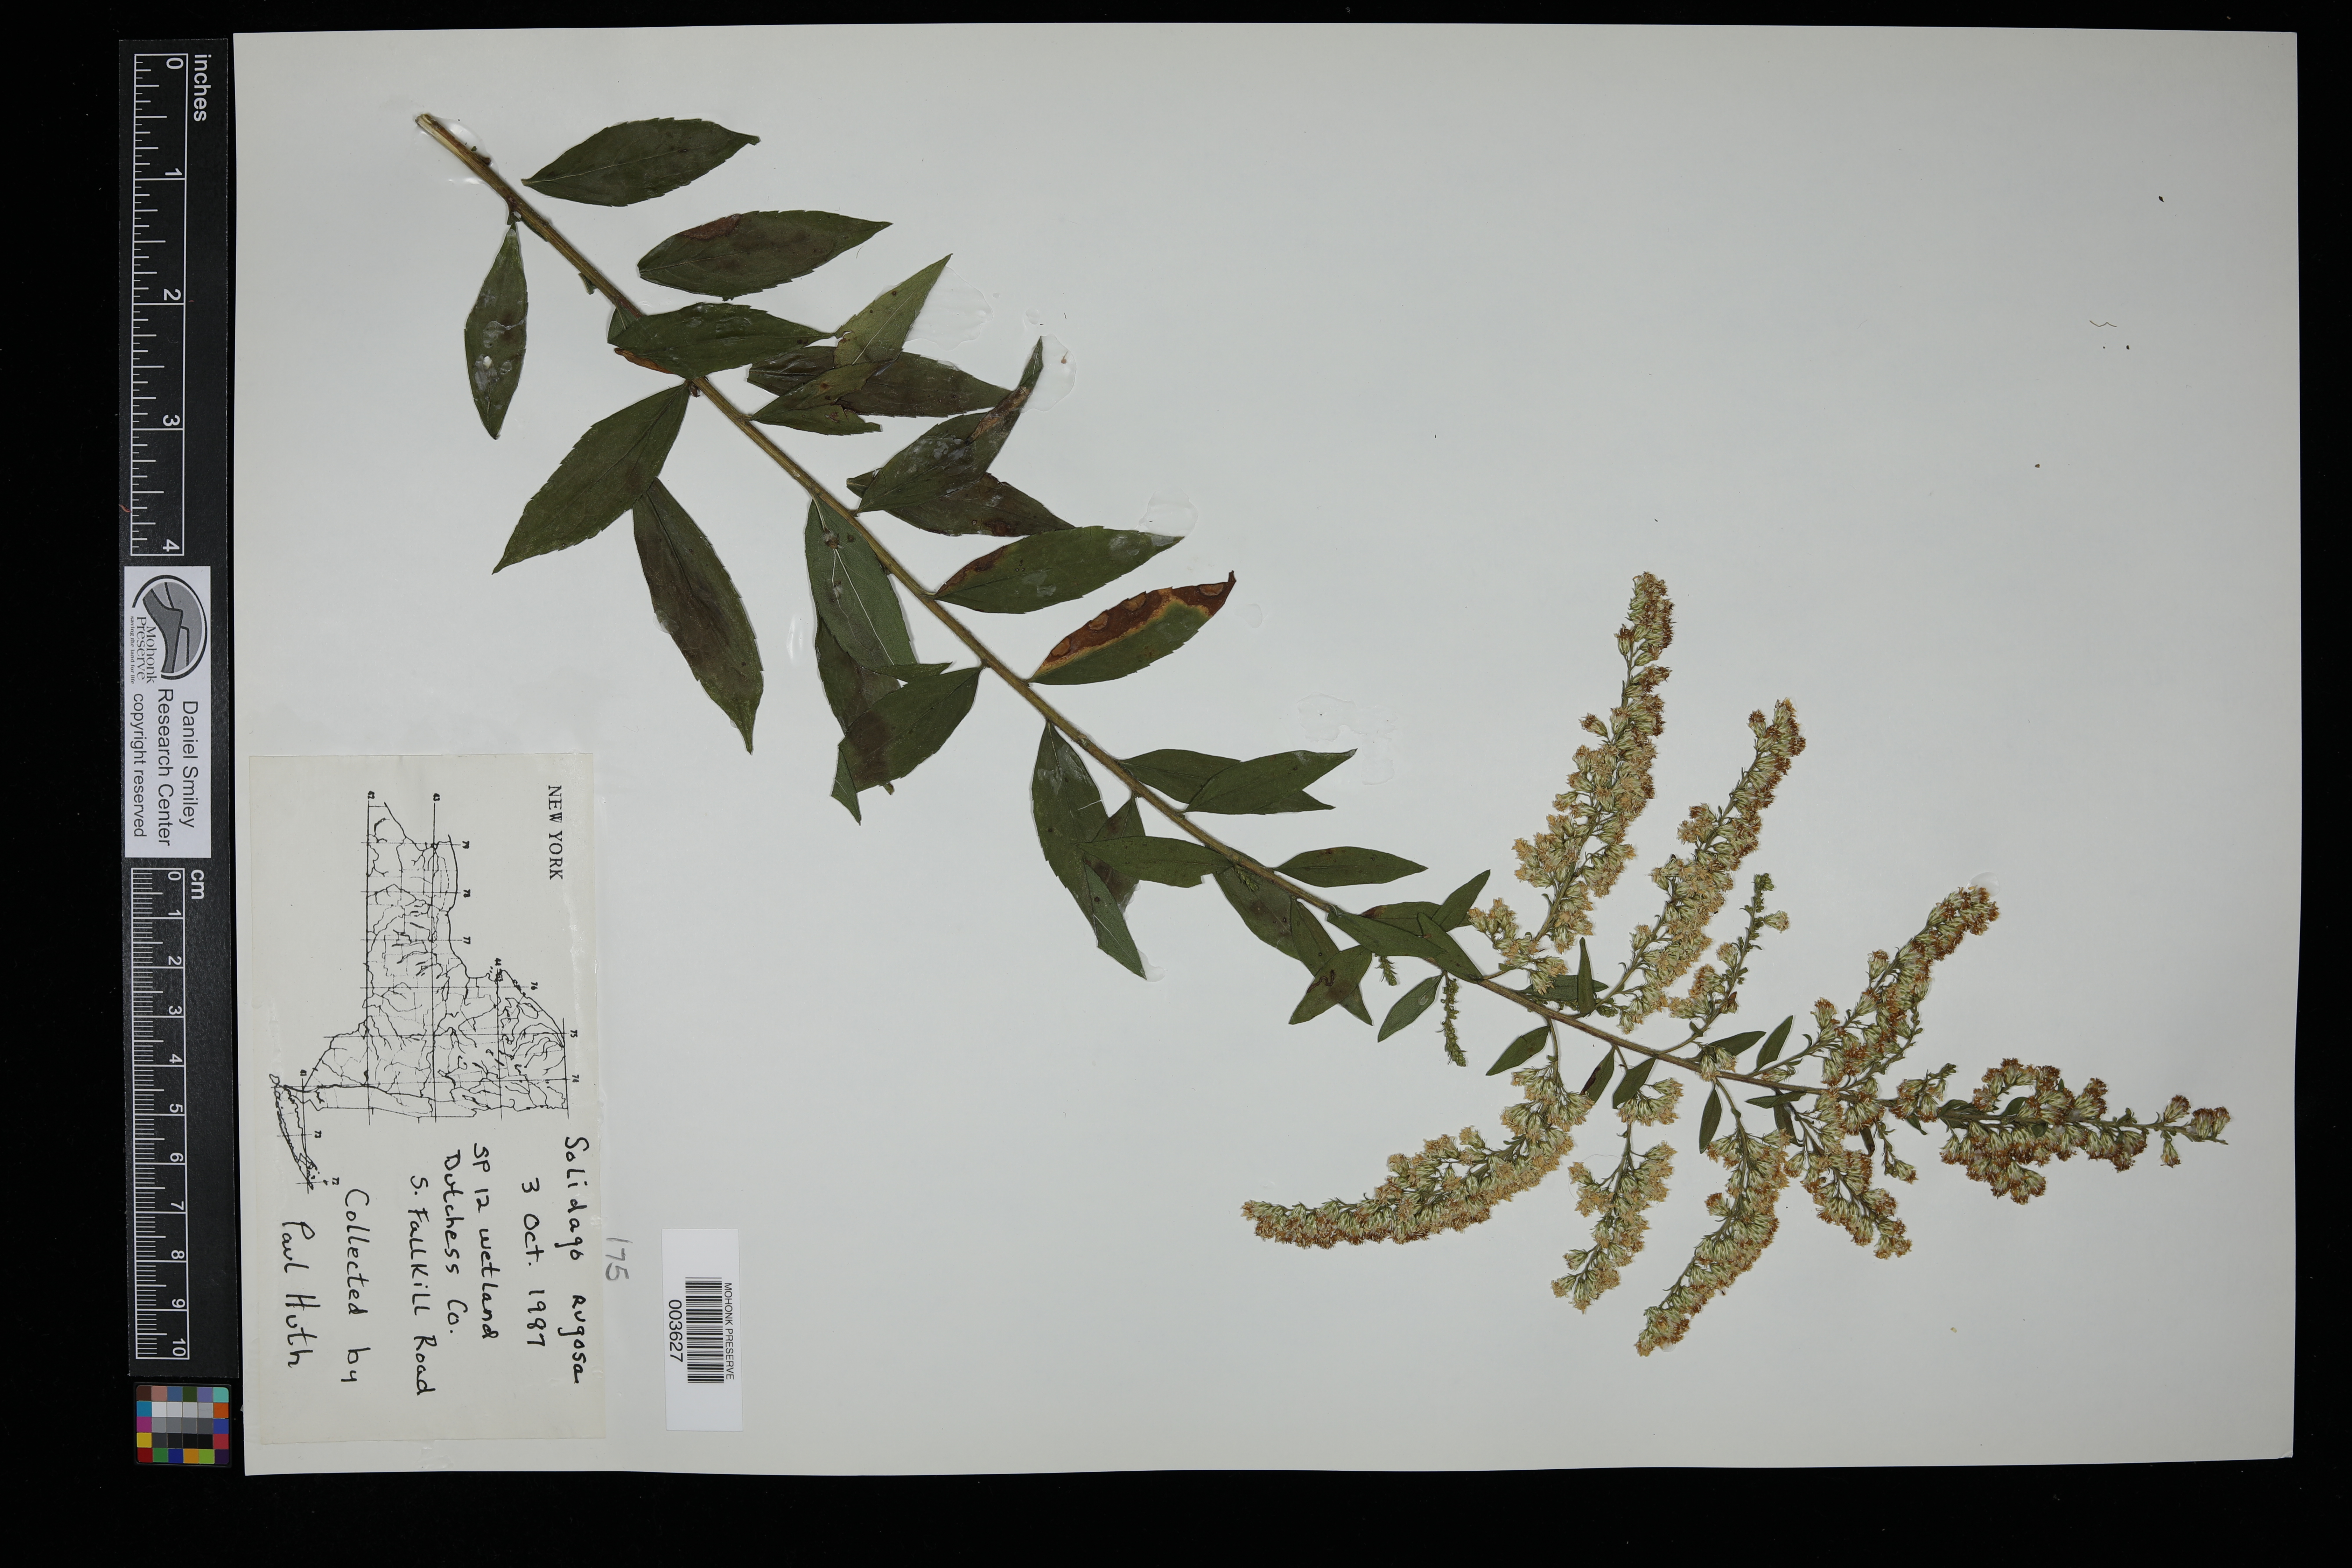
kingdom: Plantae
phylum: Tracheophyta
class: Magnoliopsida
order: Asterales
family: Asteraceae
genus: Solidago
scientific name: Solidago rugosa
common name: Rough-stemmed goldenrod
